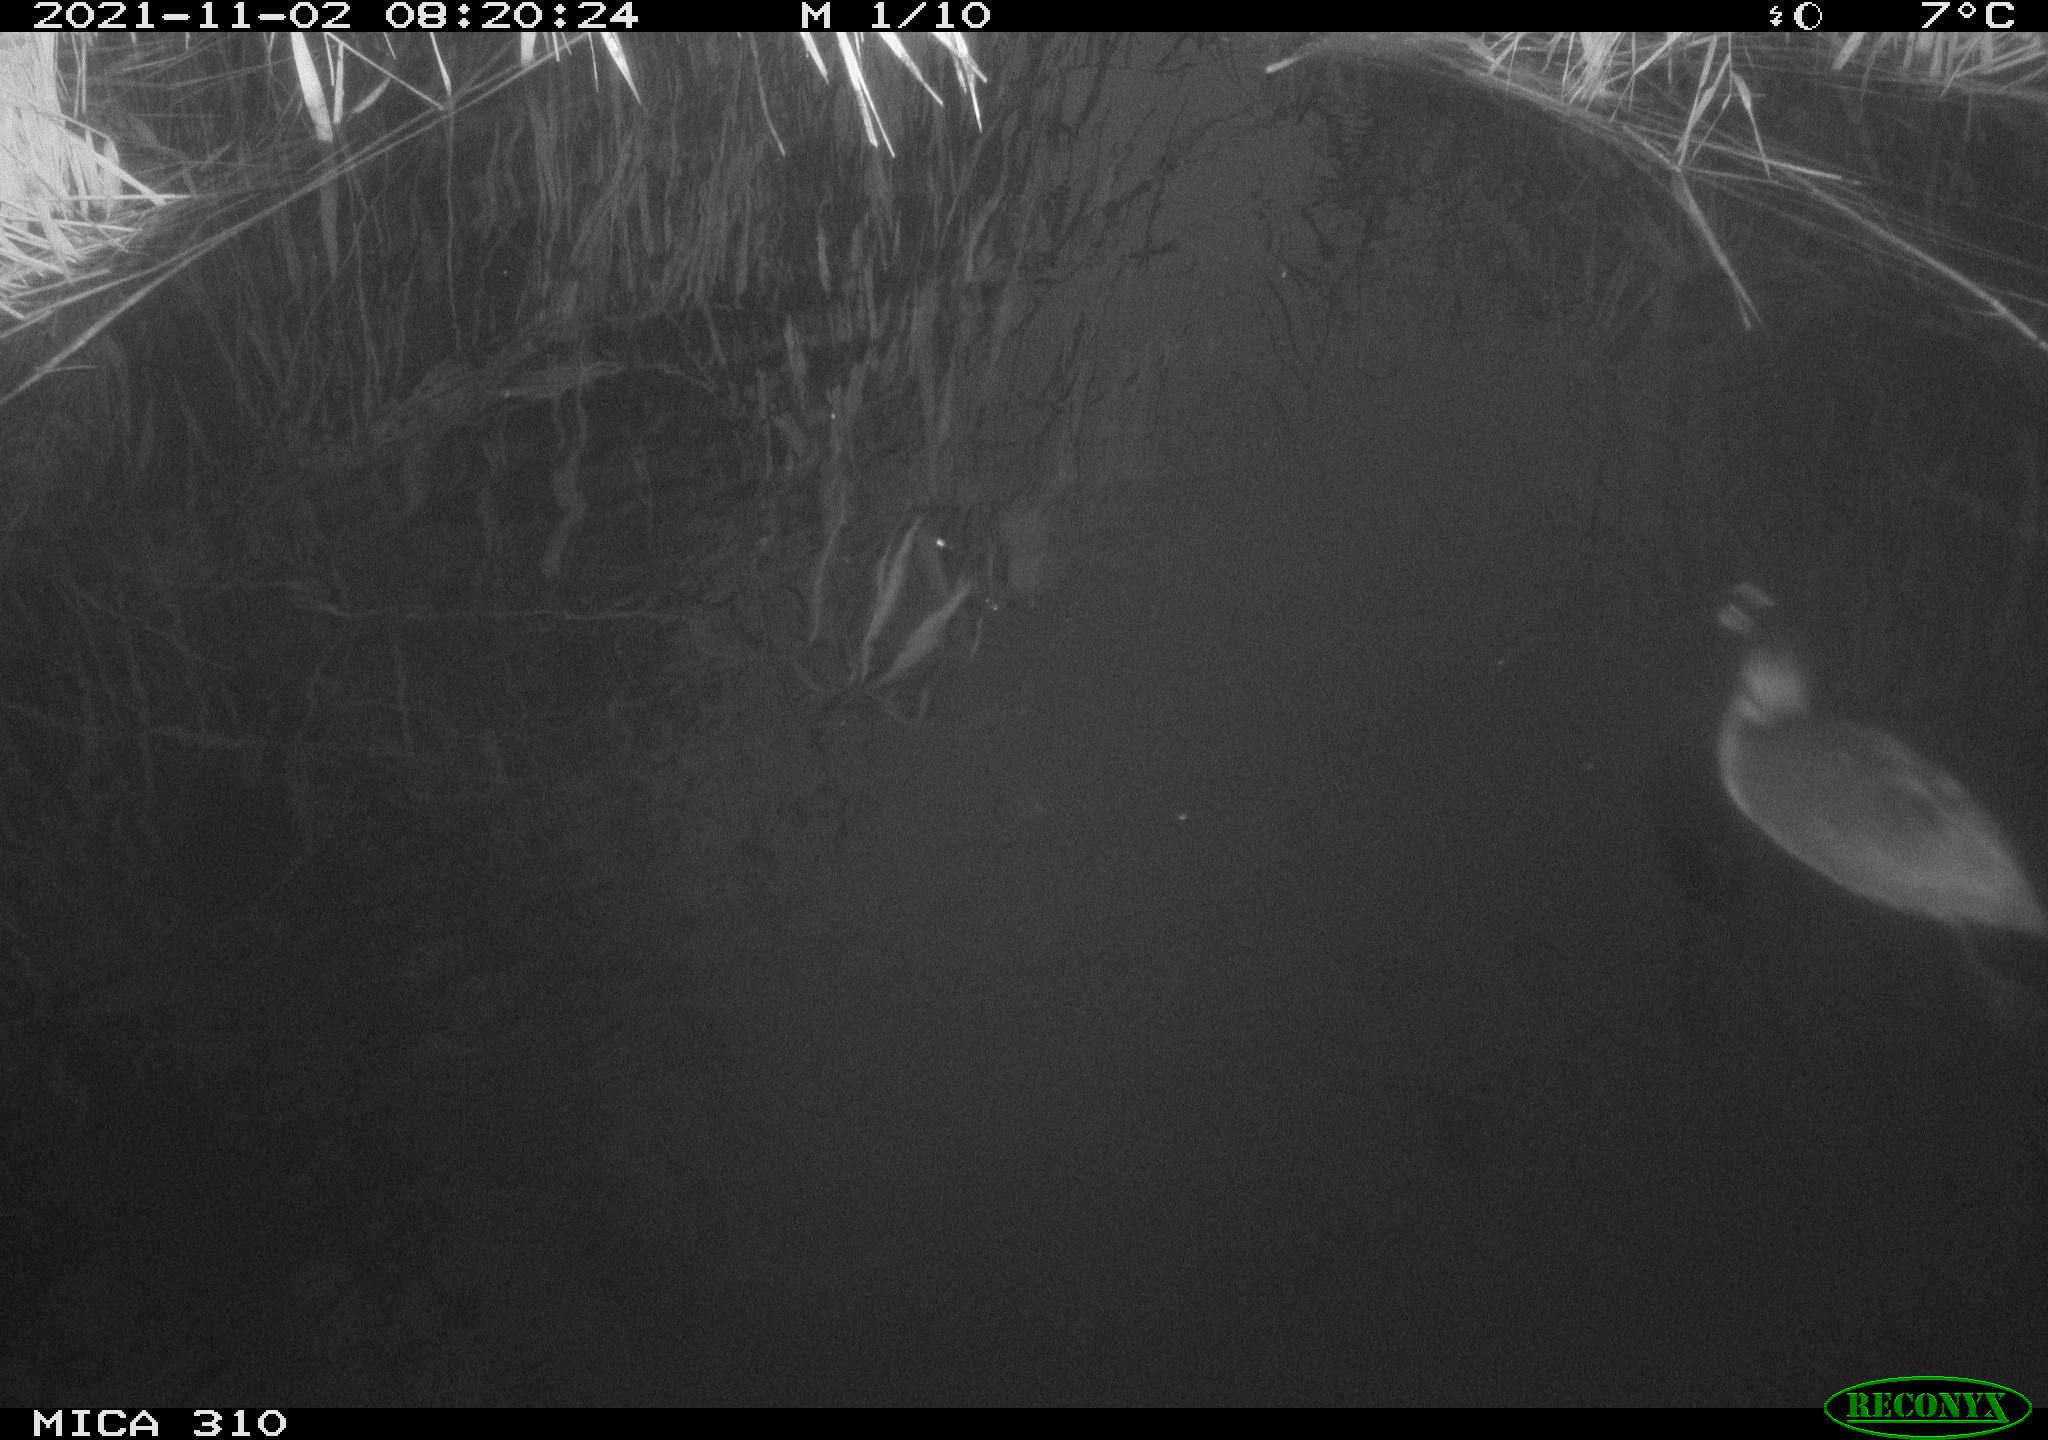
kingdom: Animalia
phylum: Chordata
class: Aves
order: Gruiformes
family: Rallidae
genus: Fulica
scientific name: Fulica atra
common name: Eurasian coot
